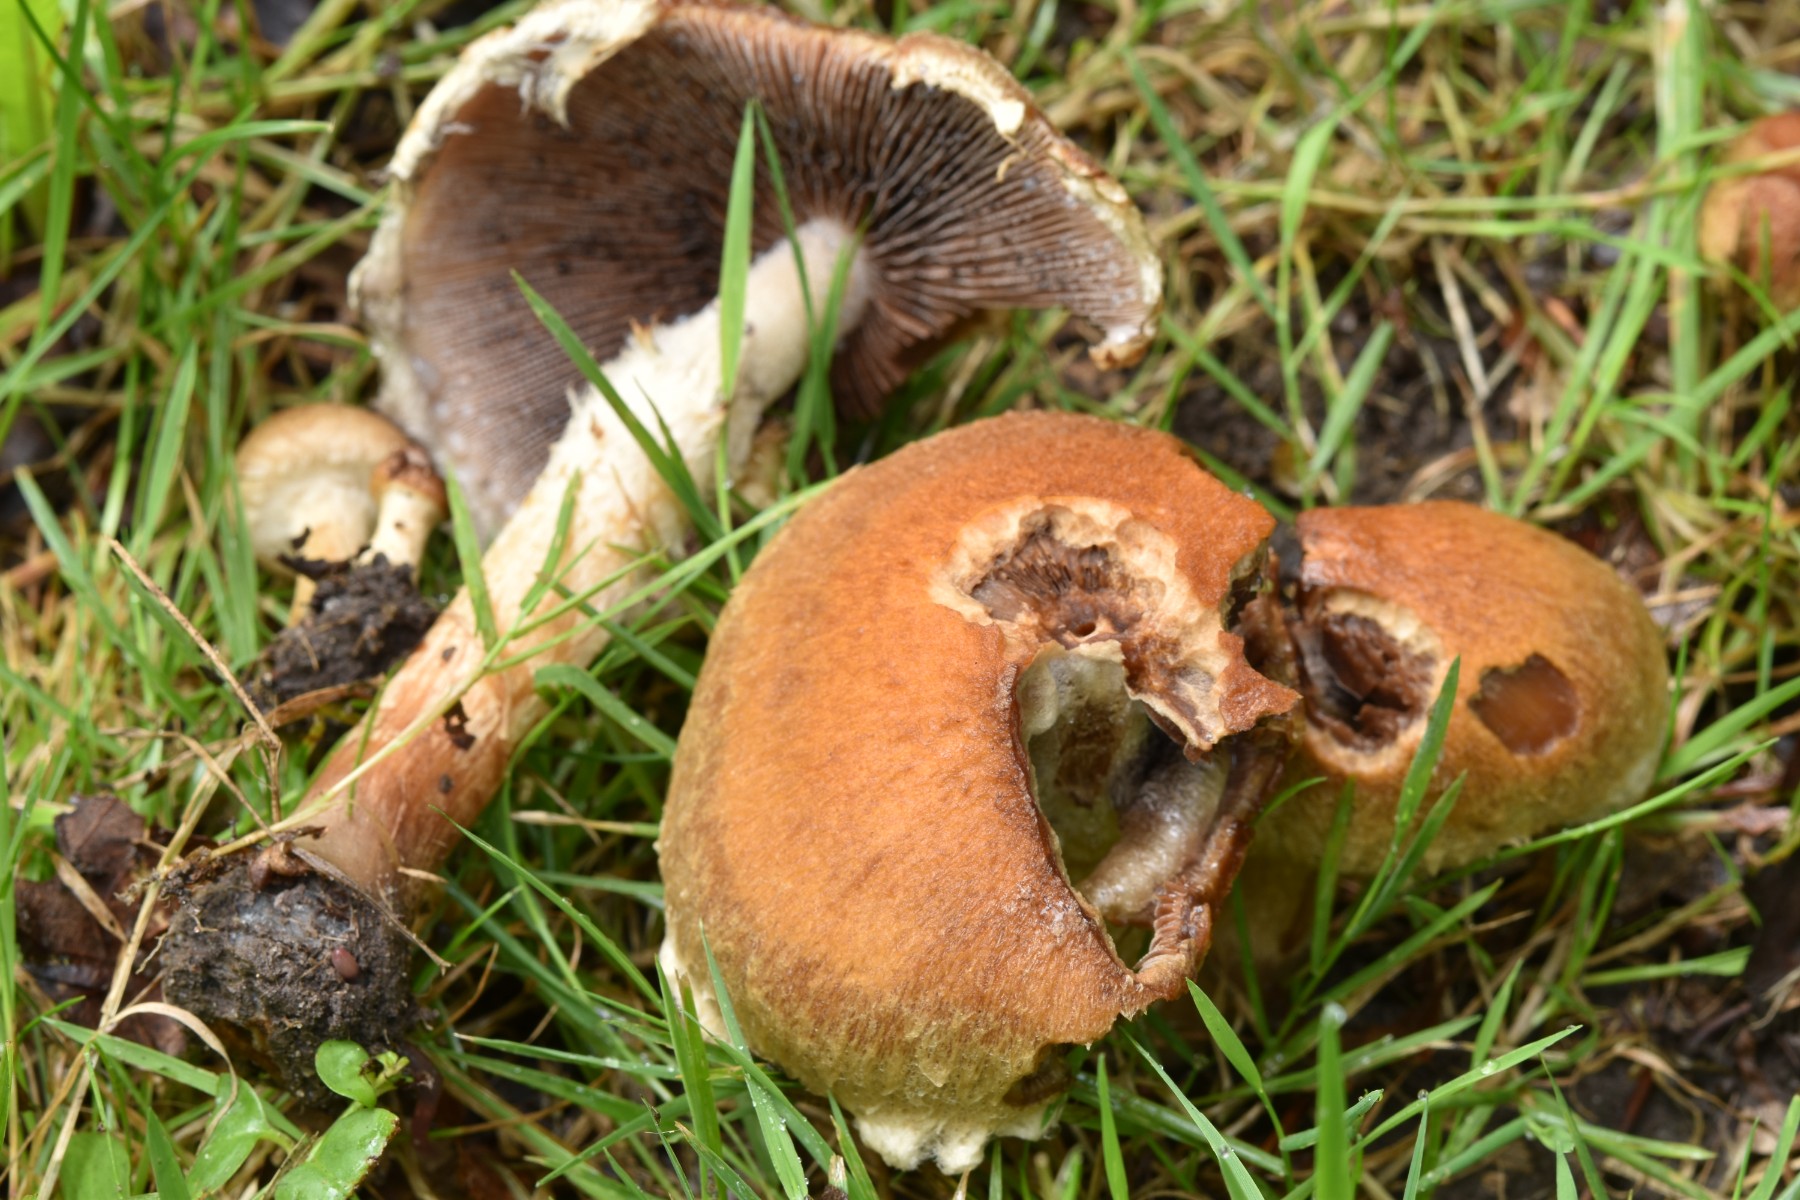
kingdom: Fungi
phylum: Basidiomycota
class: Agaricomycetes
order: Agaricales
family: Psathyrellaceae
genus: Lacrymaria
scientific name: Lacrymaria lacrymabunda
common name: grædende mørkhat
